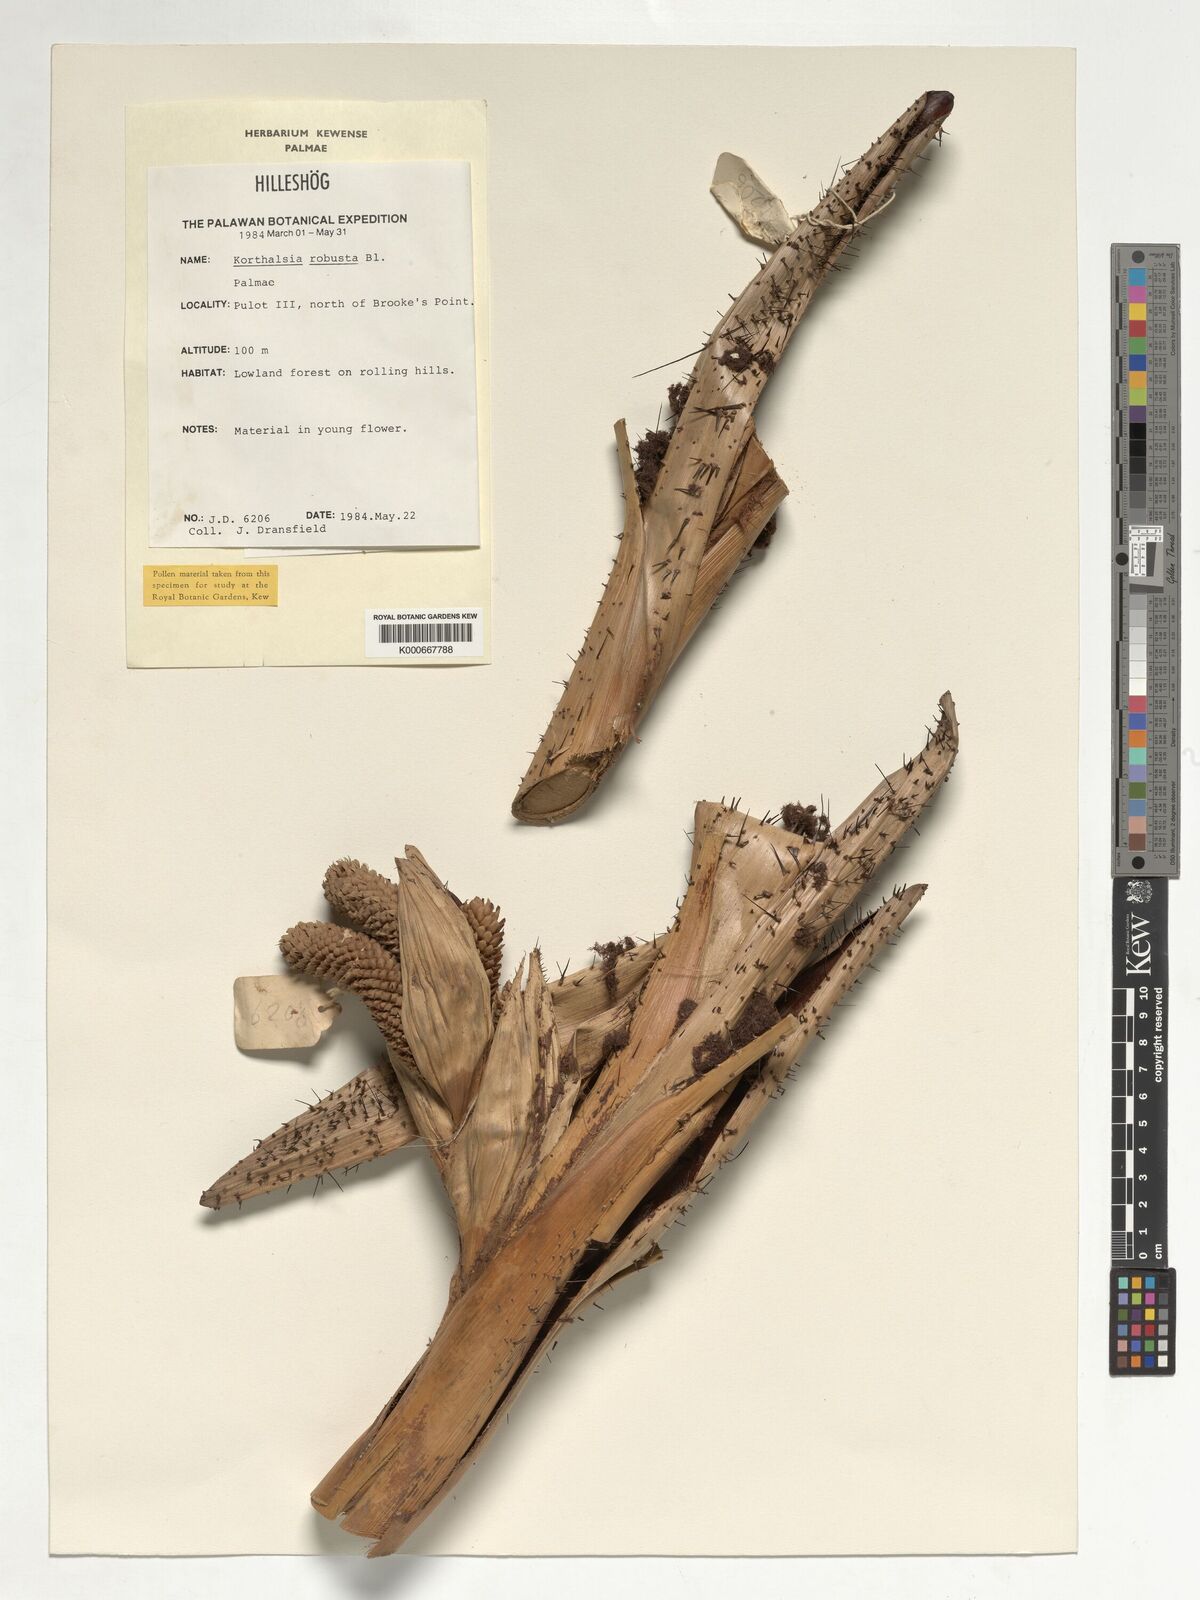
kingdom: Plantae
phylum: Tracheophyta
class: Liliopsida
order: Arecales
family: Arecaceae
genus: Korthalsia
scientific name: Korthalsia robusta
